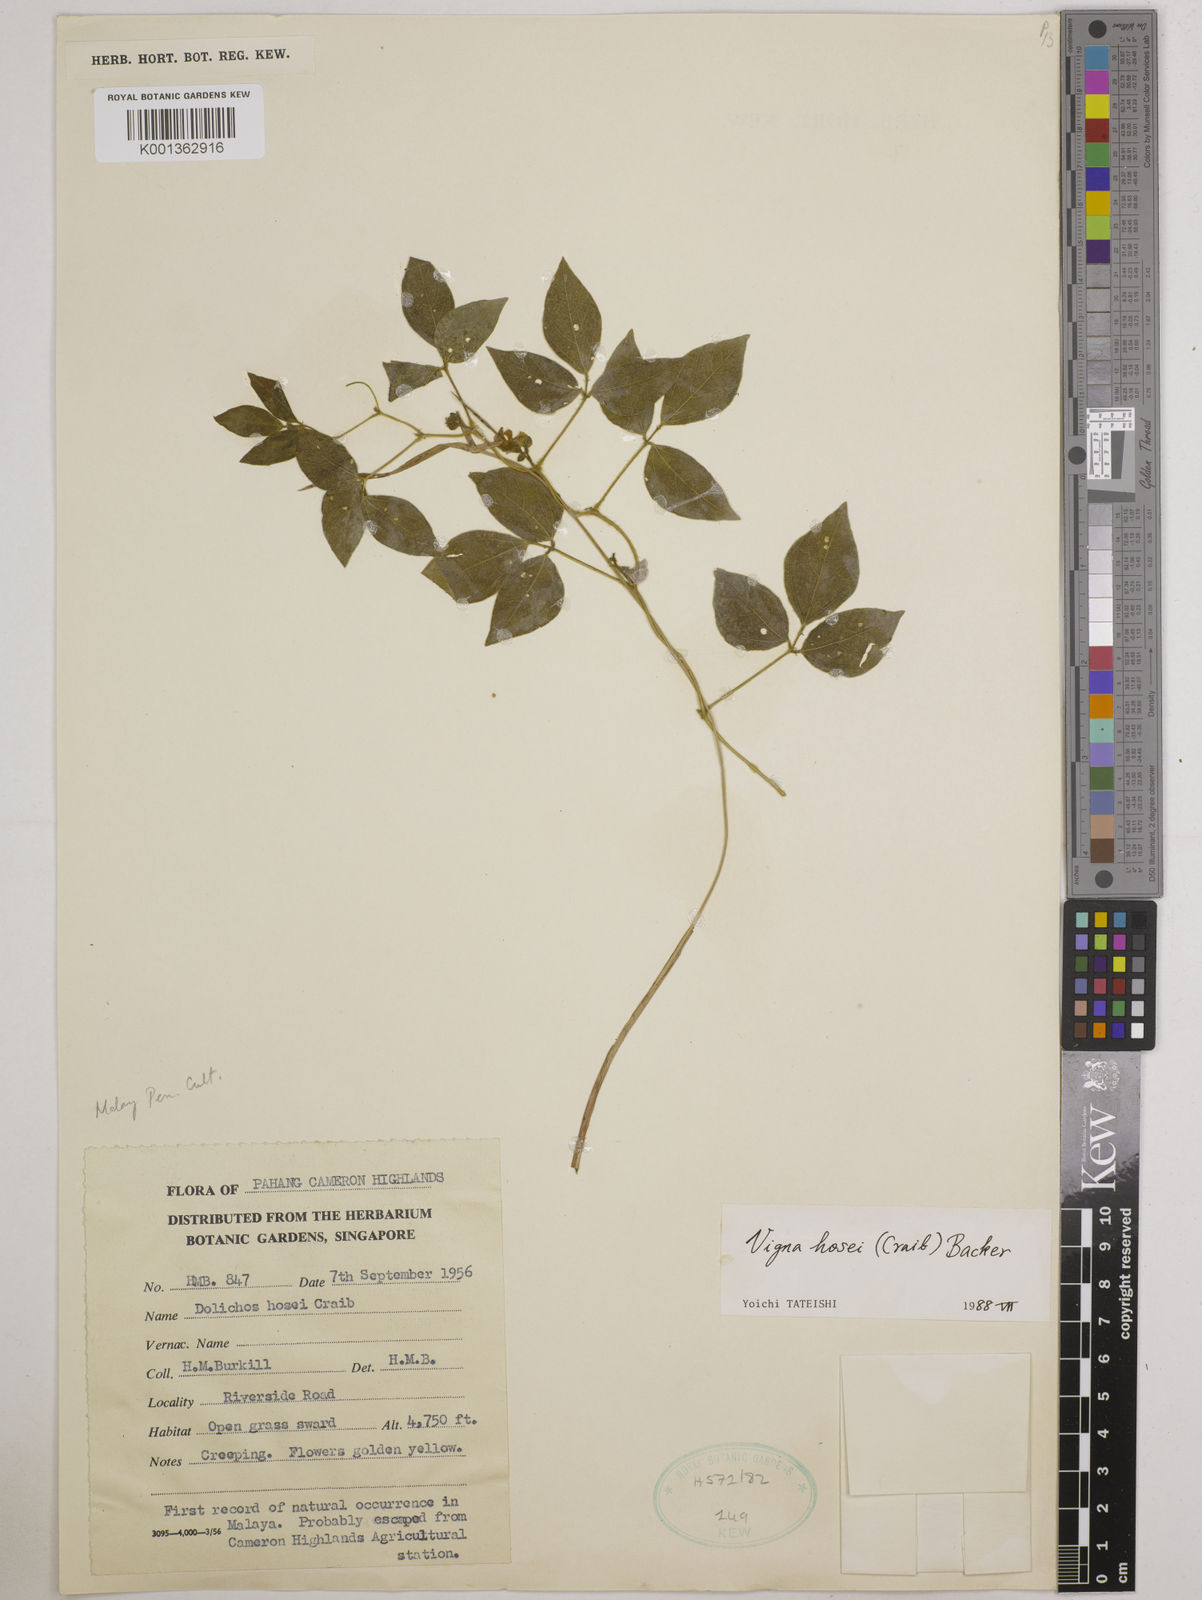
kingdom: Plantae
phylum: Tracheophyta
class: Magnoliopsida
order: Fabales
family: Fabaceae
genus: Vigna
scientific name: Vigna hosei
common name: Sarawak-bean
